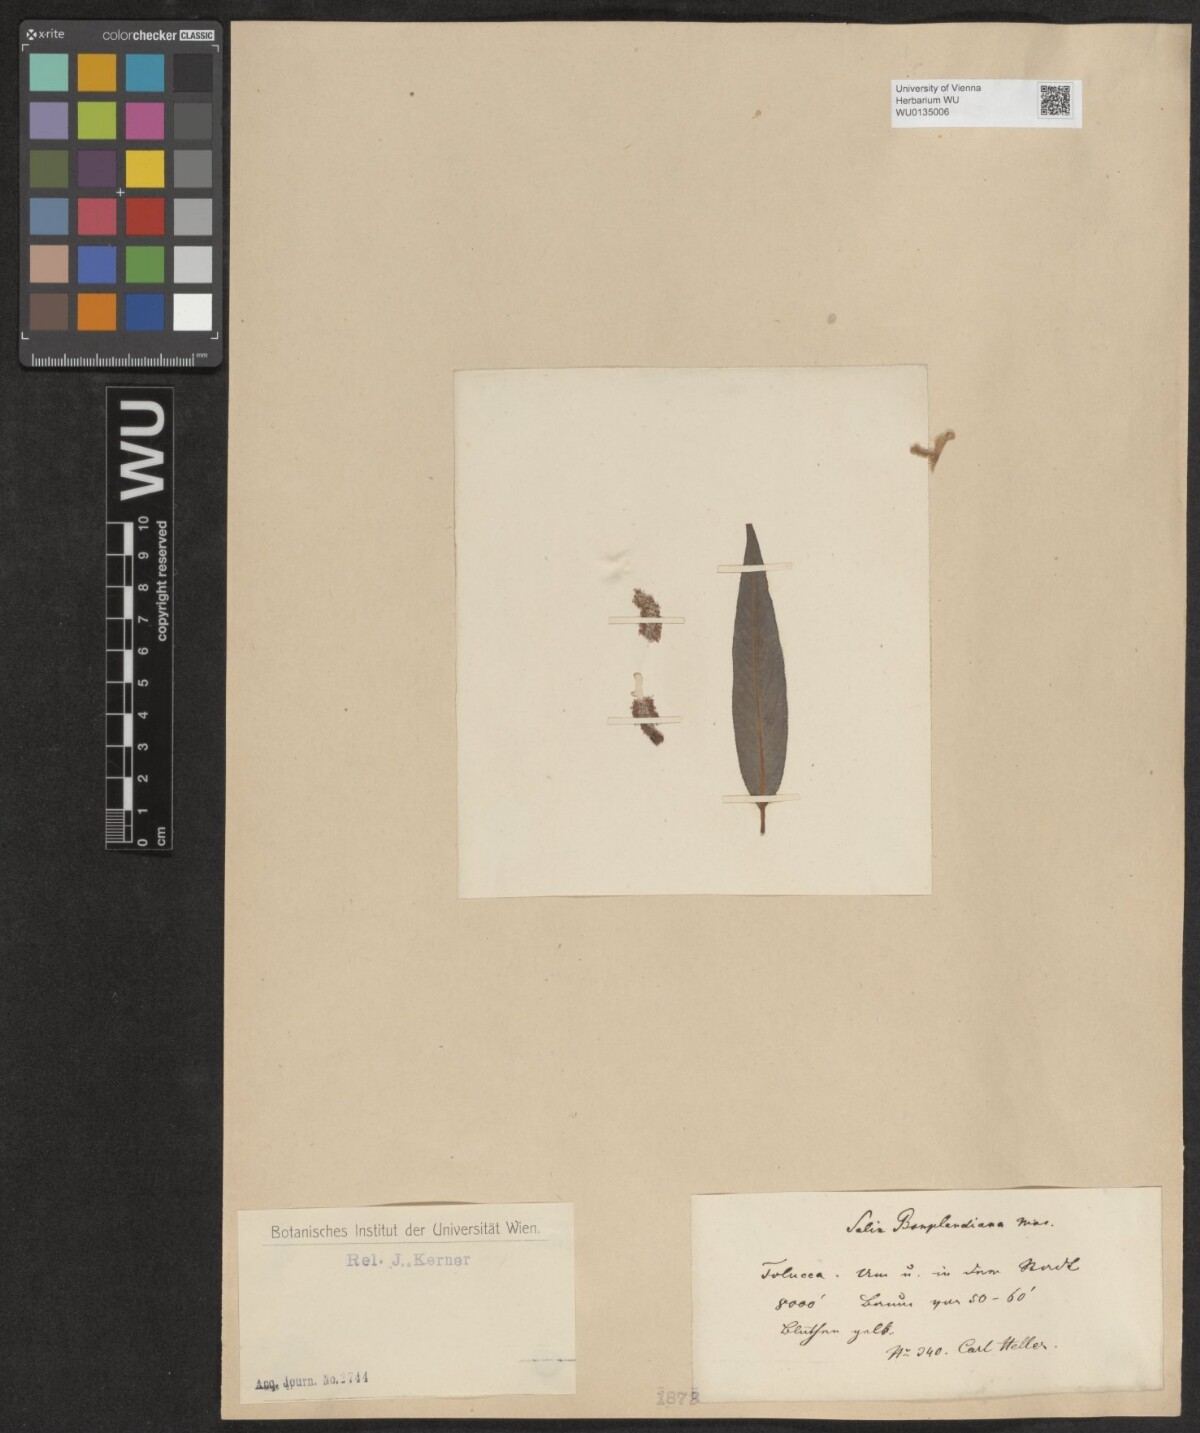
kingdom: Plantae
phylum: Tracheophyta
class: Magnoliopsida
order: Malpighiales
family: Salicaceae
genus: Salix
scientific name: Salix bonplandiana
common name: Bonpland’s willow
